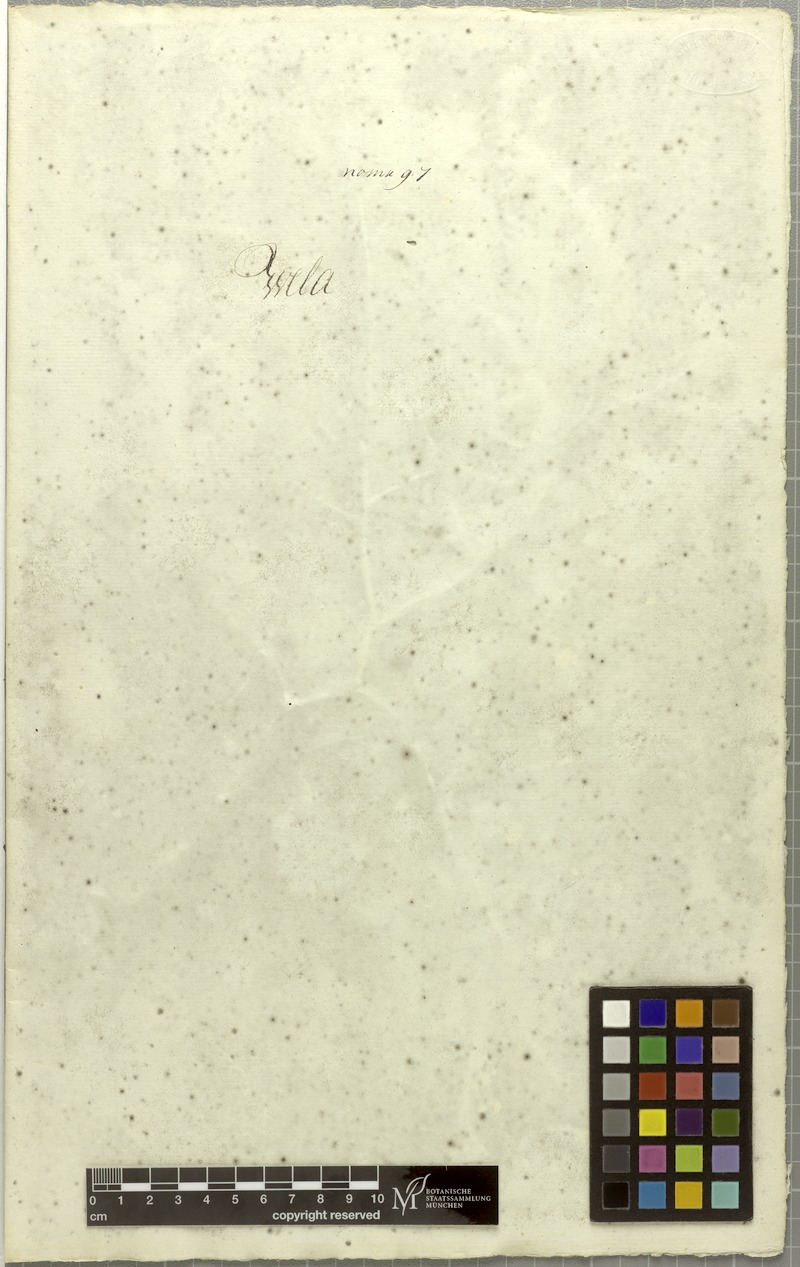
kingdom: Plantae
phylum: Tracheophyta
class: Magnoliopsida
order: Brassicales
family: Cleomaceae
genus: Gynandropsis
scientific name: Gynandropsis gynandra
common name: Spiderwisp
